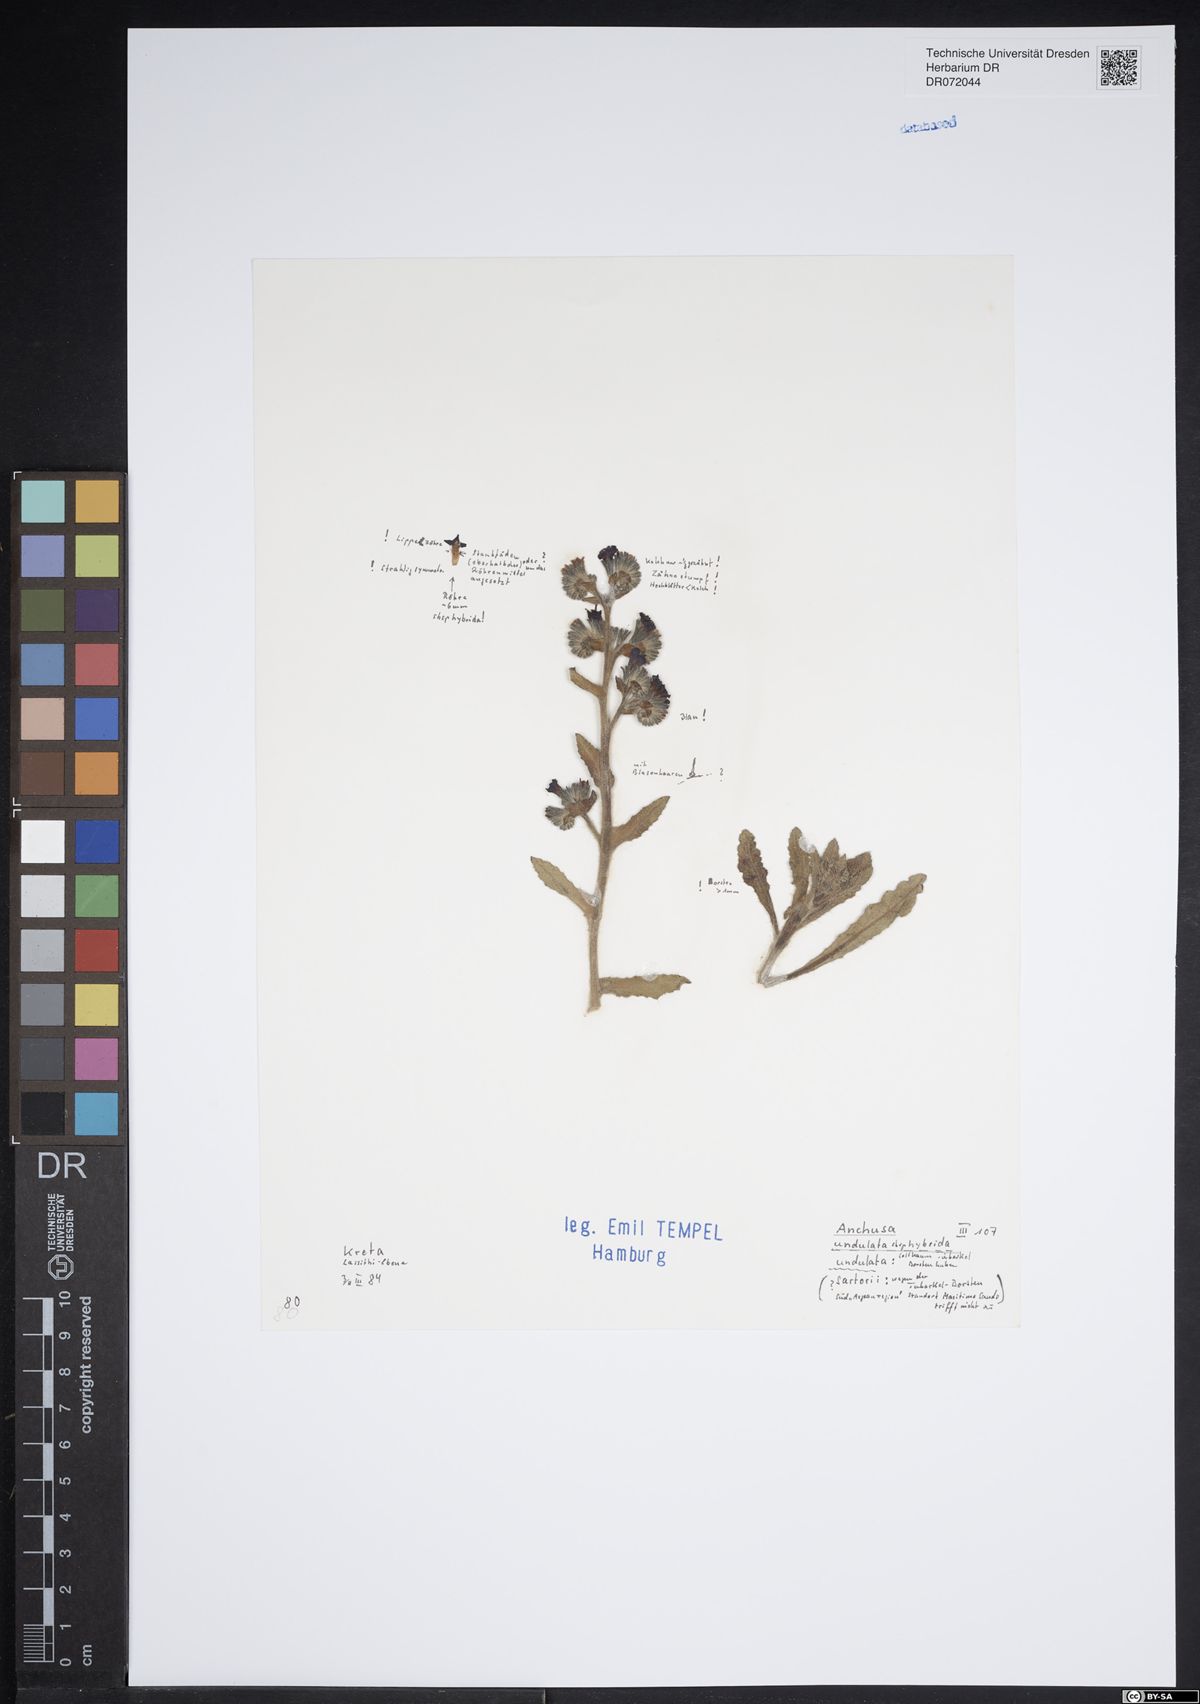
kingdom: Plantae
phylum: Tracheophyta
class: Magnoliopsida
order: Boraginales
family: Boraginaceae
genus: Anchusa
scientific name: Anchusa undulata
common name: Undulate alkanet
